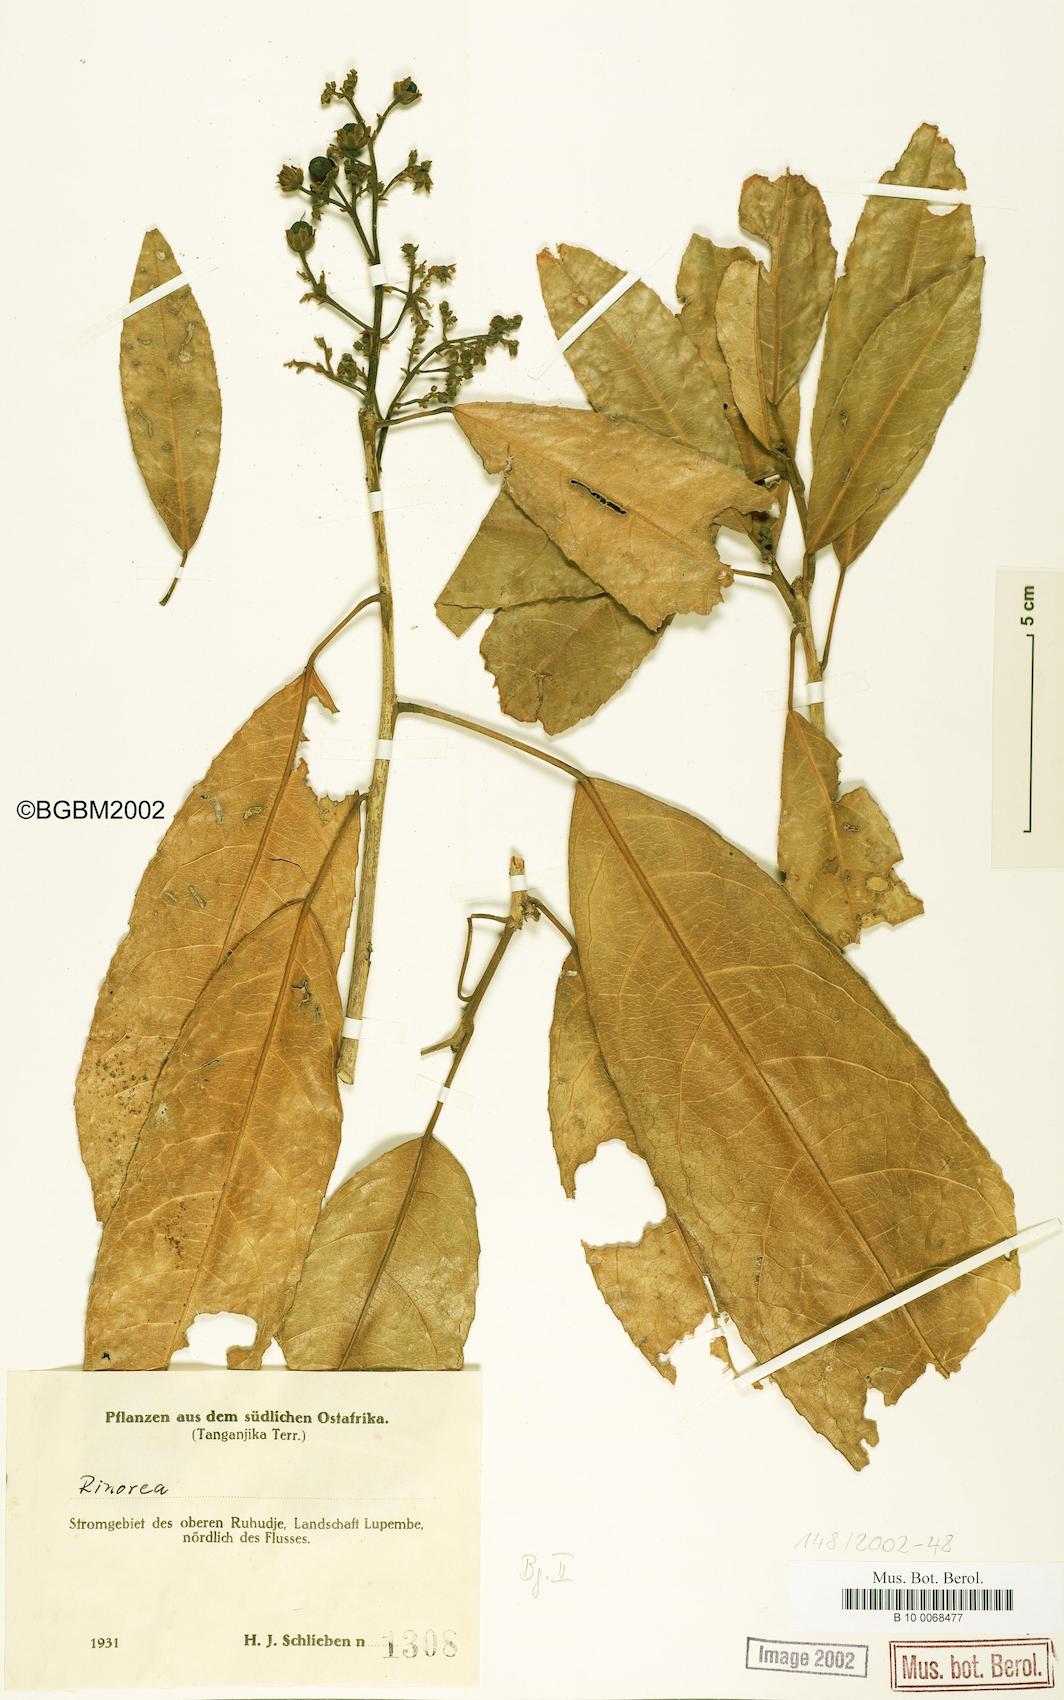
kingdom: Plantae
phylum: Tracheophyta
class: Magnoliopsida
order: Malpighiales
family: Violaceae
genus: Rinorea
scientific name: Rinorea
